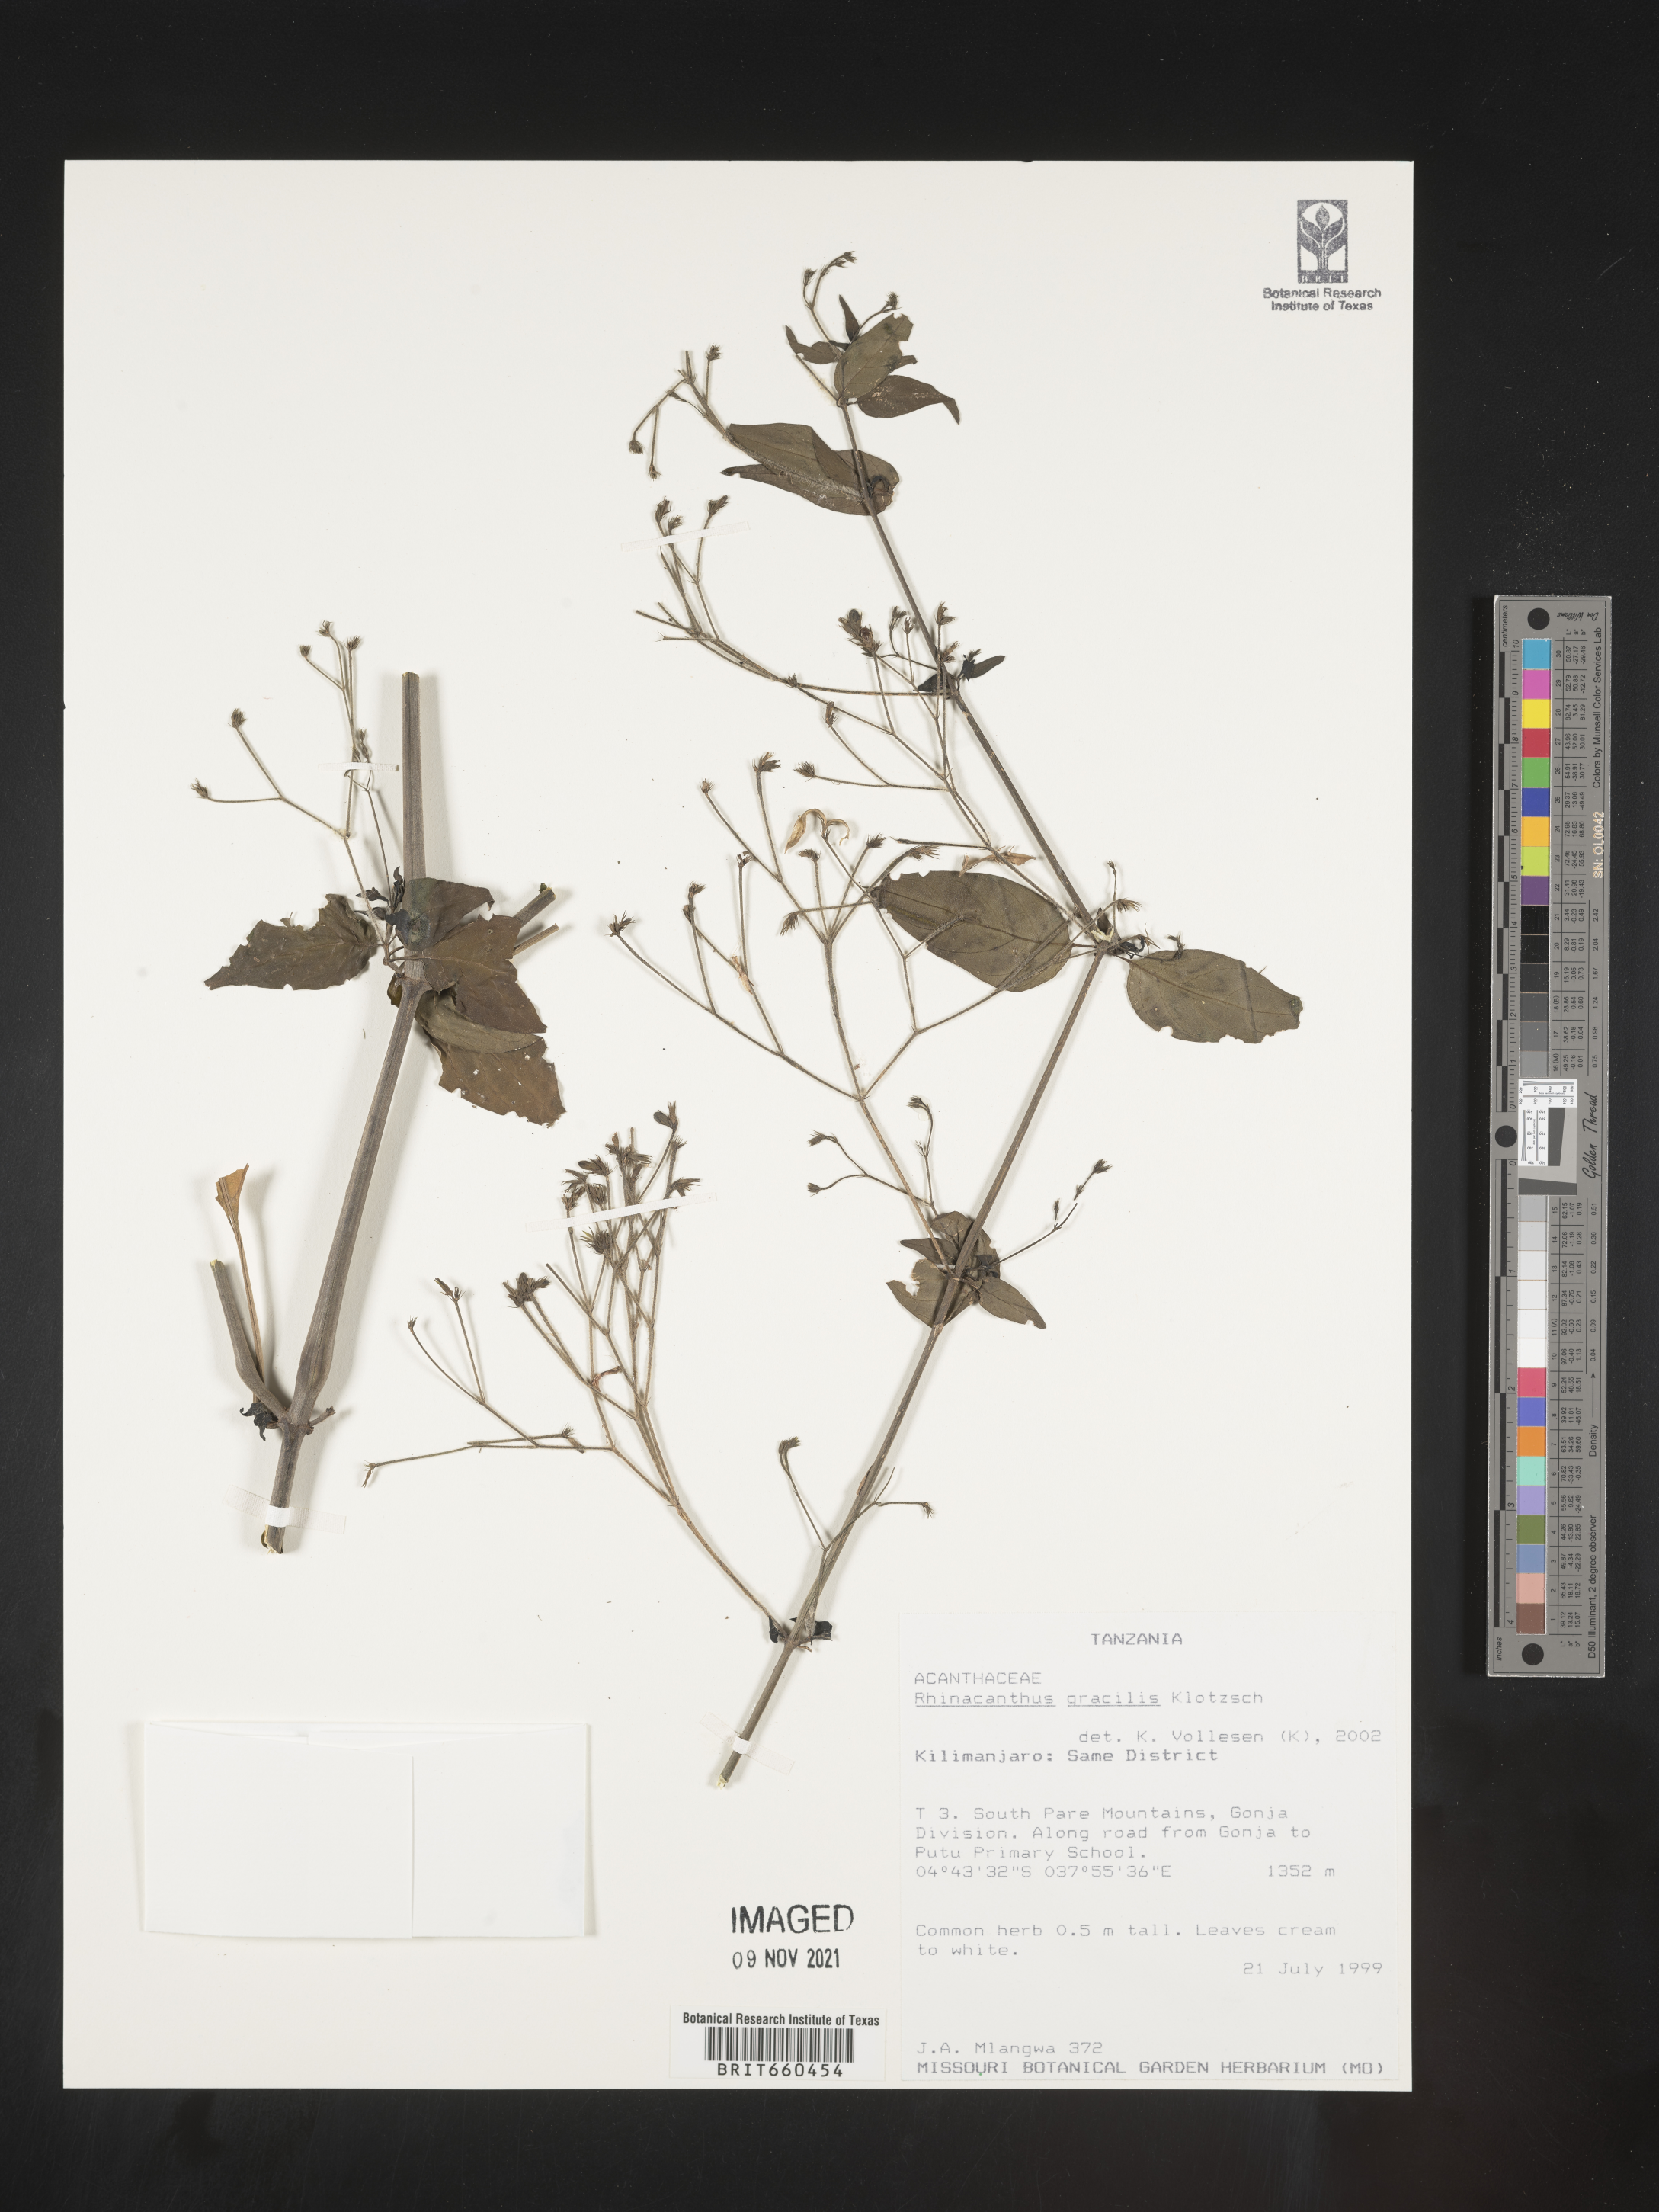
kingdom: Plantae
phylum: Tracheophyta
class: Magnoliopsida
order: Lamiales
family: Acanthaceae
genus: Rhinacanthus
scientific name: Rhinacanthus
